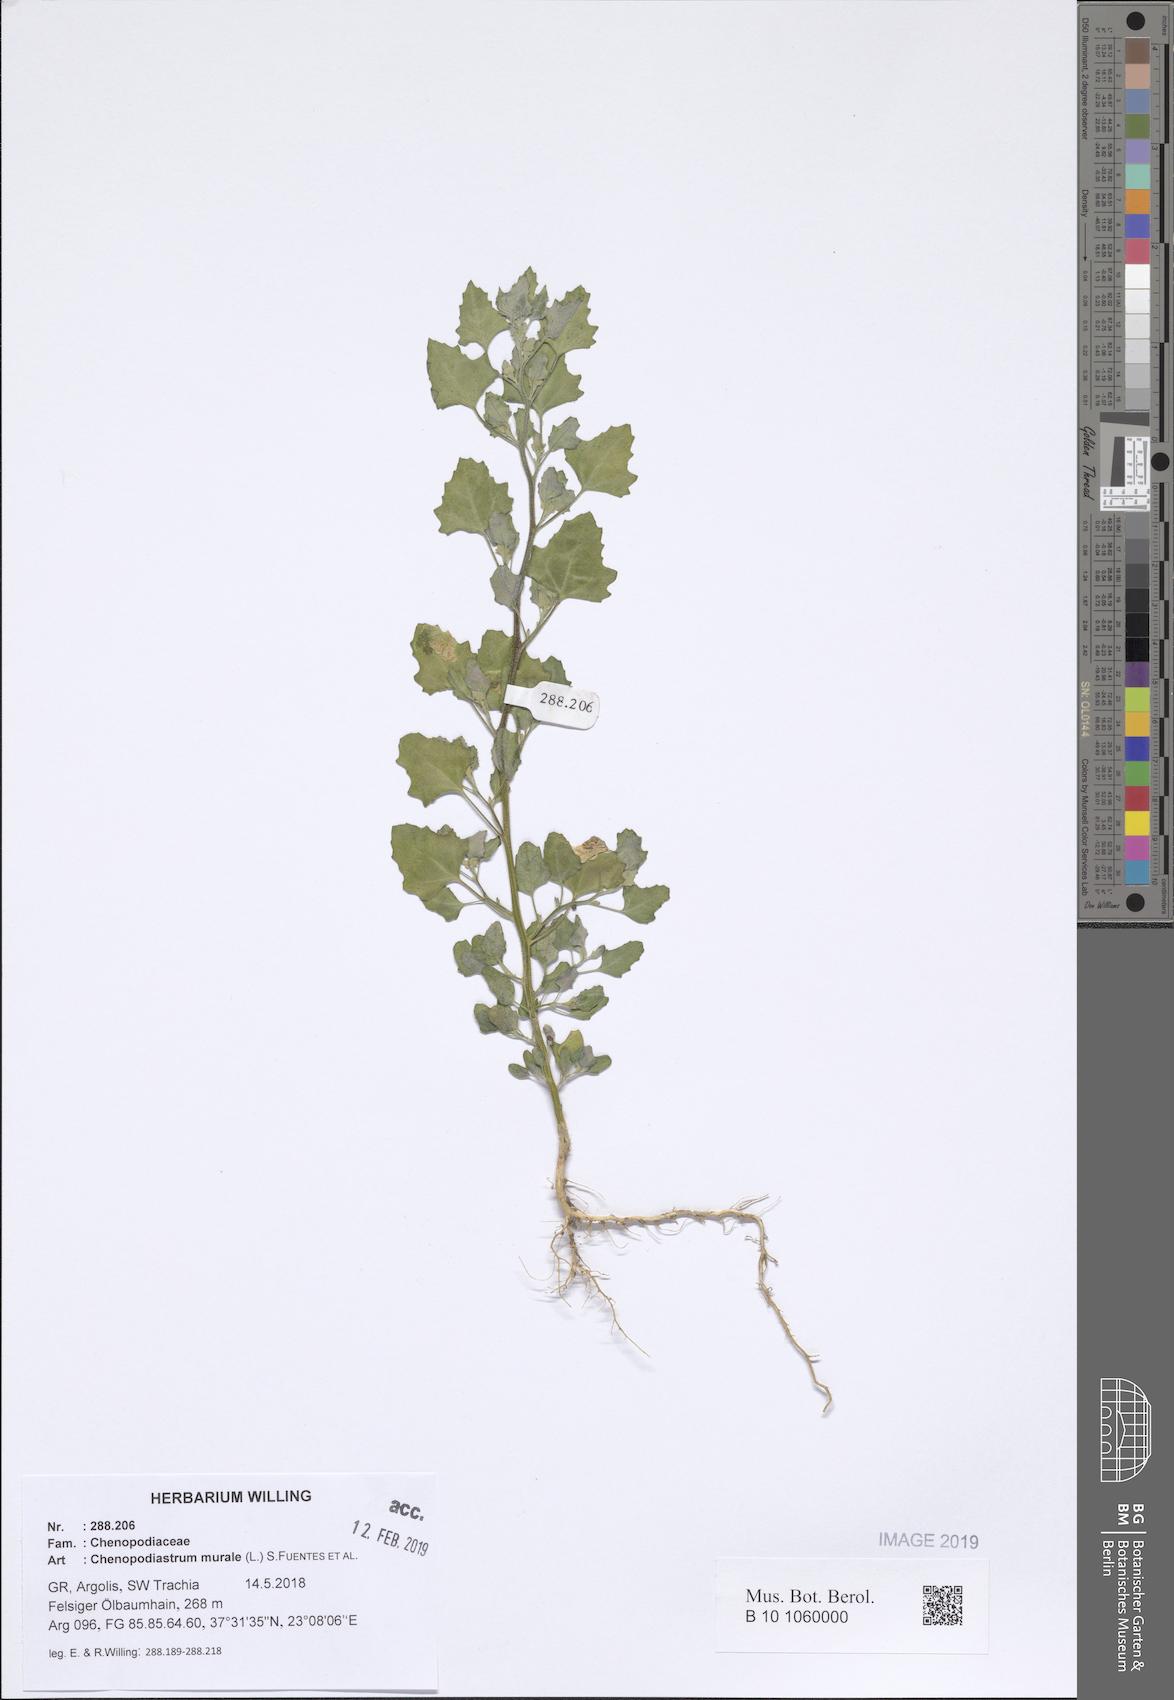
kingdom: Plantae
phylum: Tracheophyta
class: Magnoliopsida
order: Caryophyllales
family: Amaranthaceae
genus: Chenopodiastrum
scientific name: Chenopodiastrum murale
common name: Sowbane
